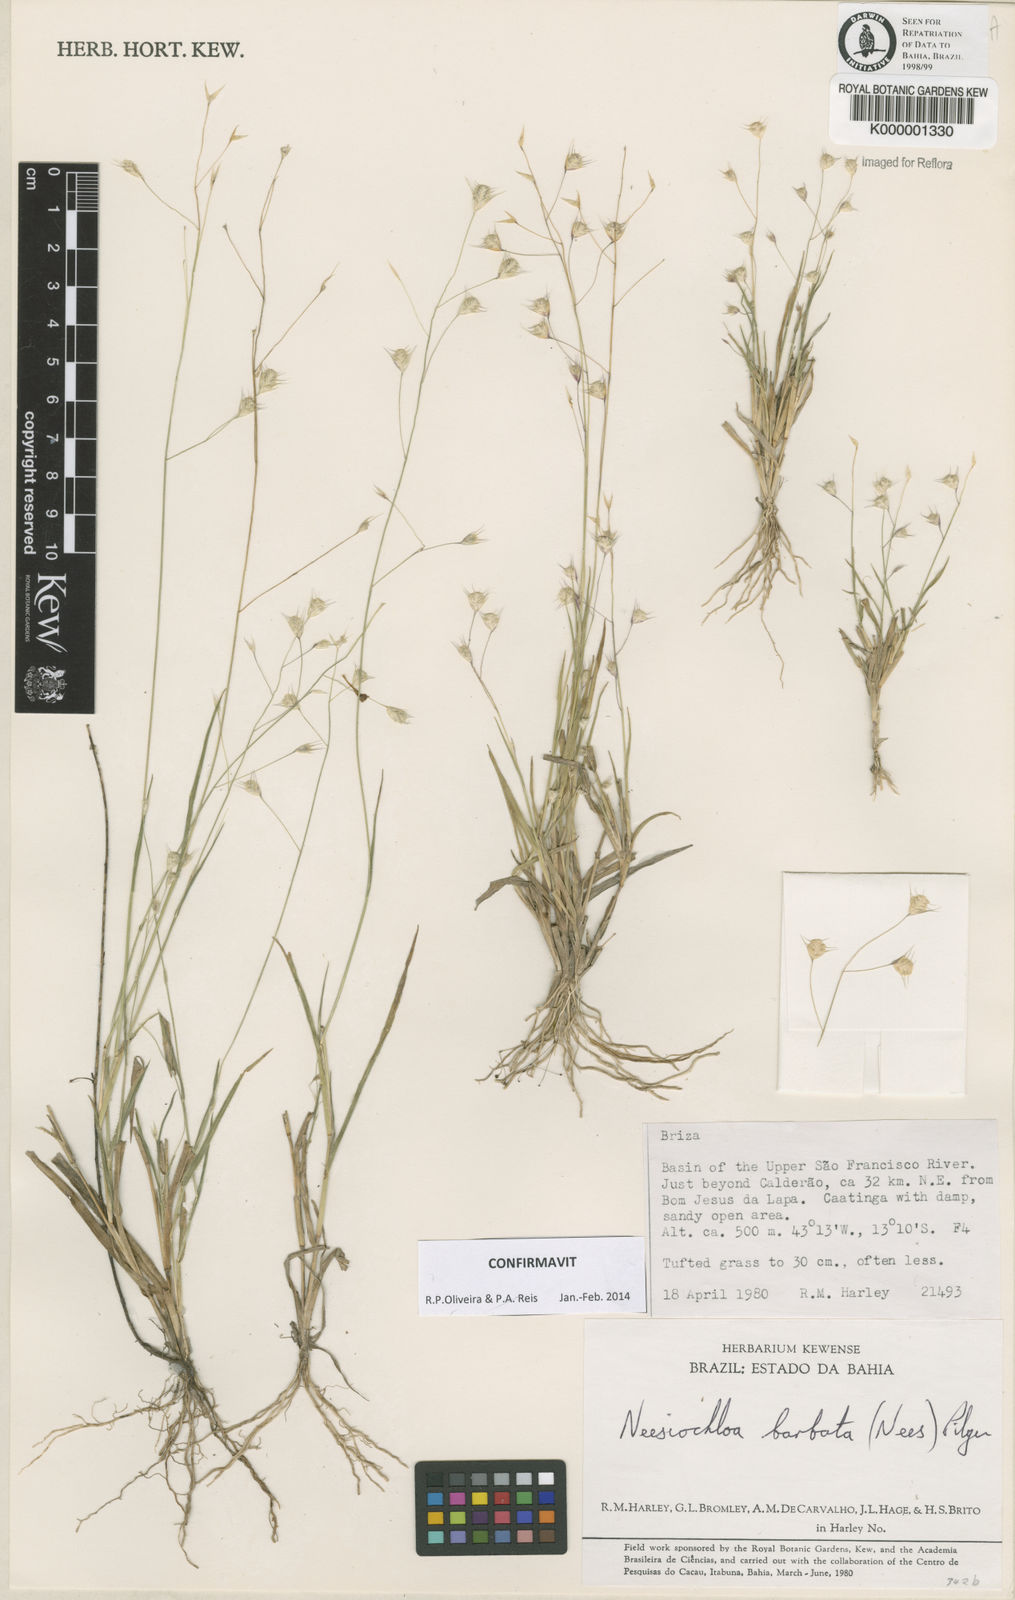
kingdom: Plantae
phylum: Tracheophyta
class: Liliopsida
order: Poales
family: Poaceae
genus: Neesiochloa
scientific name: Neesiochloa barbata
